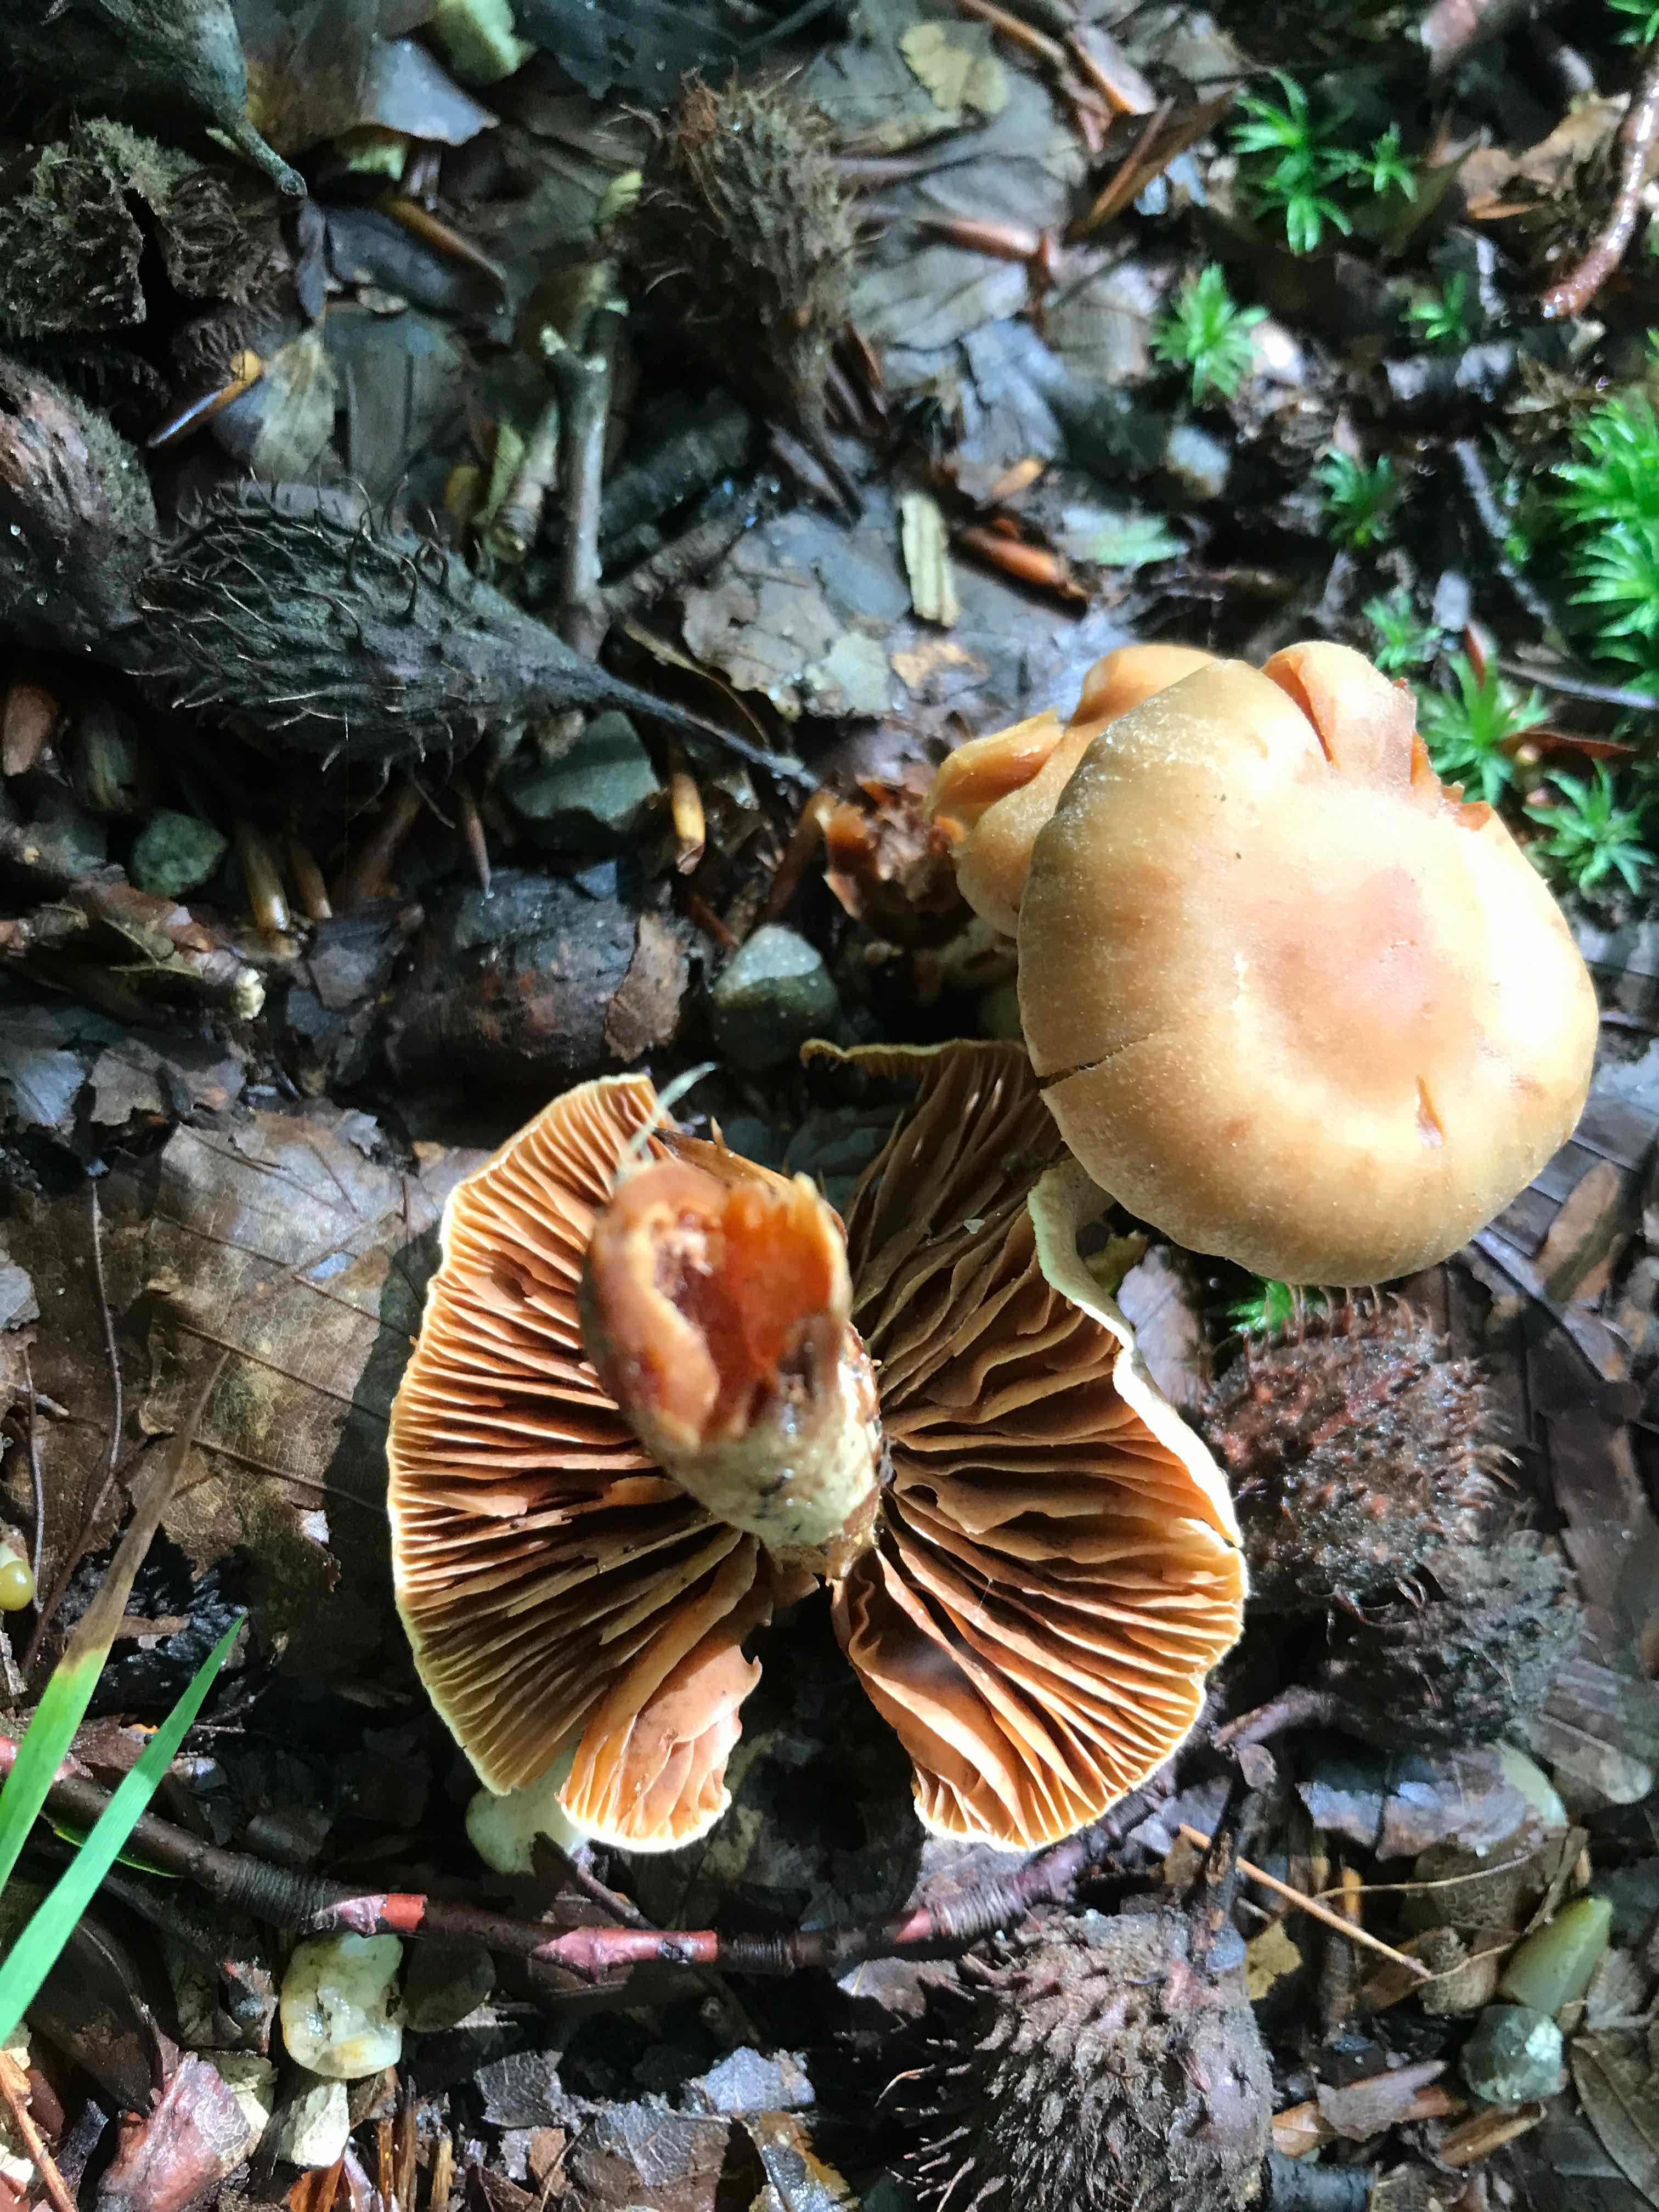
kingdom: Fungi
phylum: Basidiomycota
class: Agaricomycetes
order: Agaricales
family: Cortinariaceae
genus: Cortinarius
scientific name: Cortinarius hinnuleus
